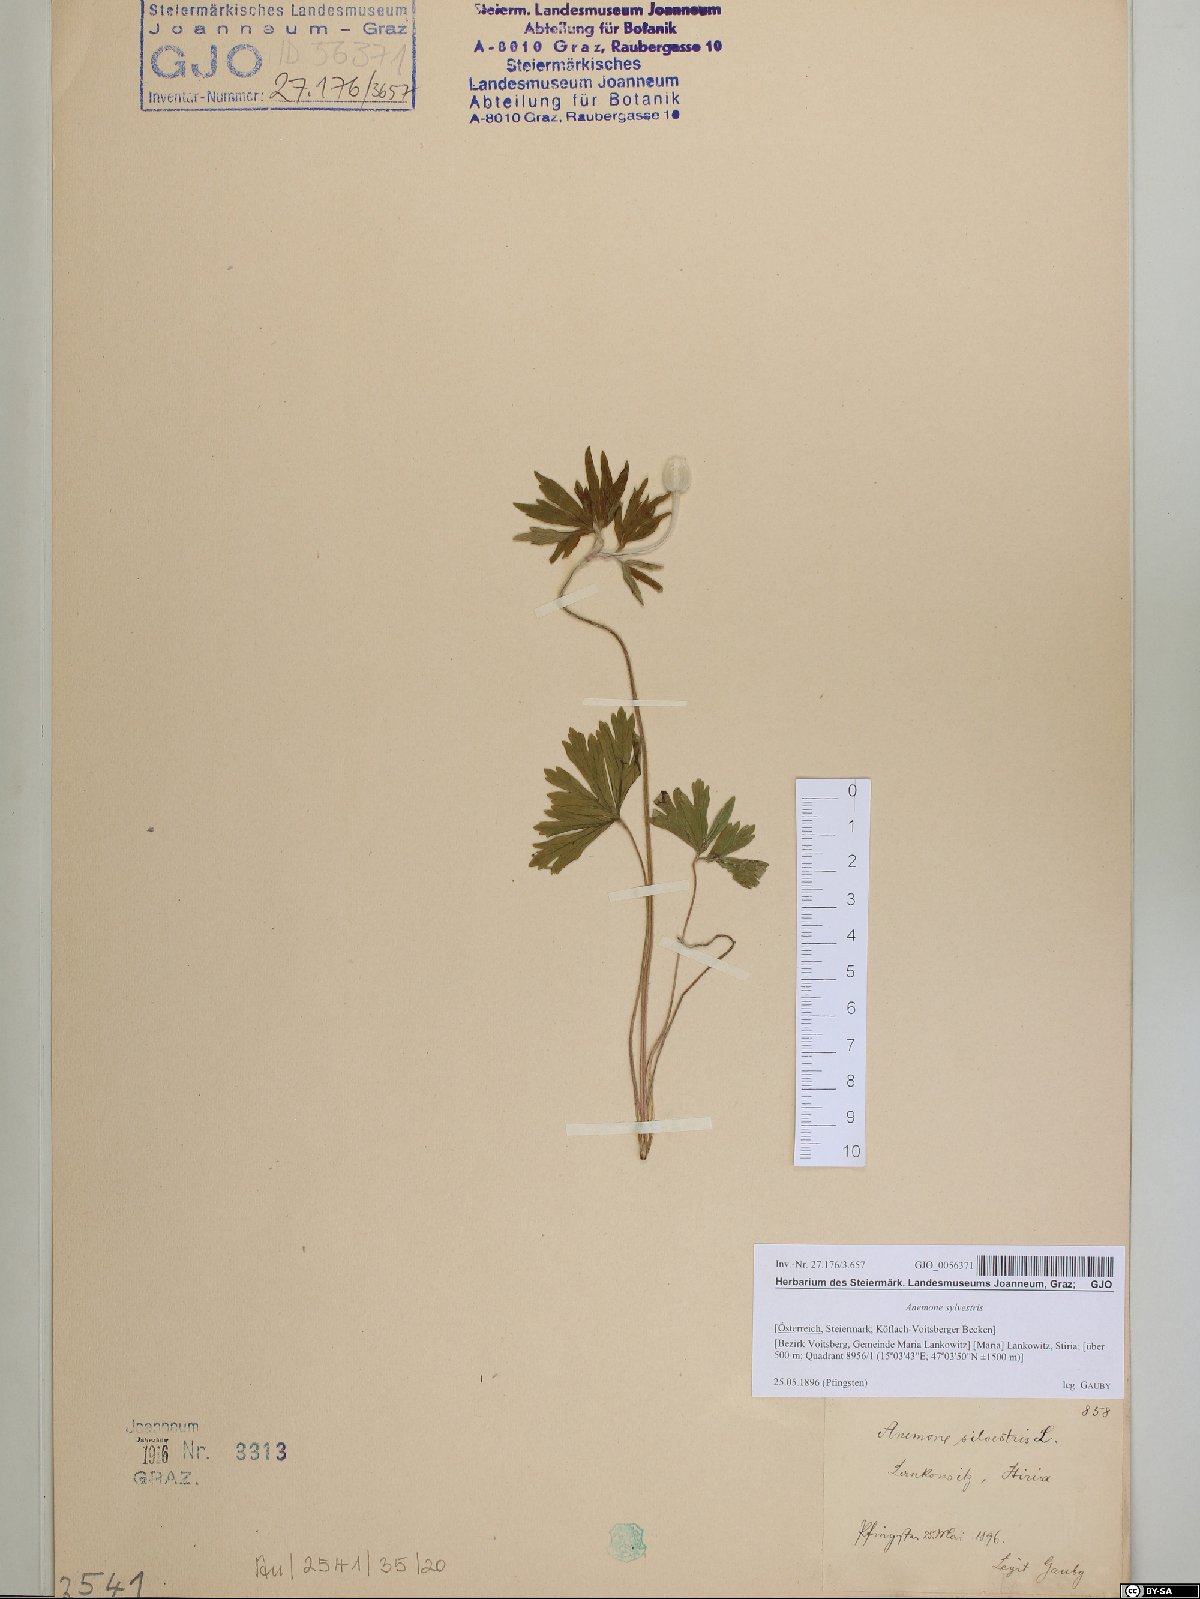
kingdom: Plantae
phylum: Tracheophyta
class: Magnoliopsida
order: Ranunculales
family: Ranunculaceae
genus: Anemone
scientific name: Anemone sylvestris
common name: Snowdrop anemone
